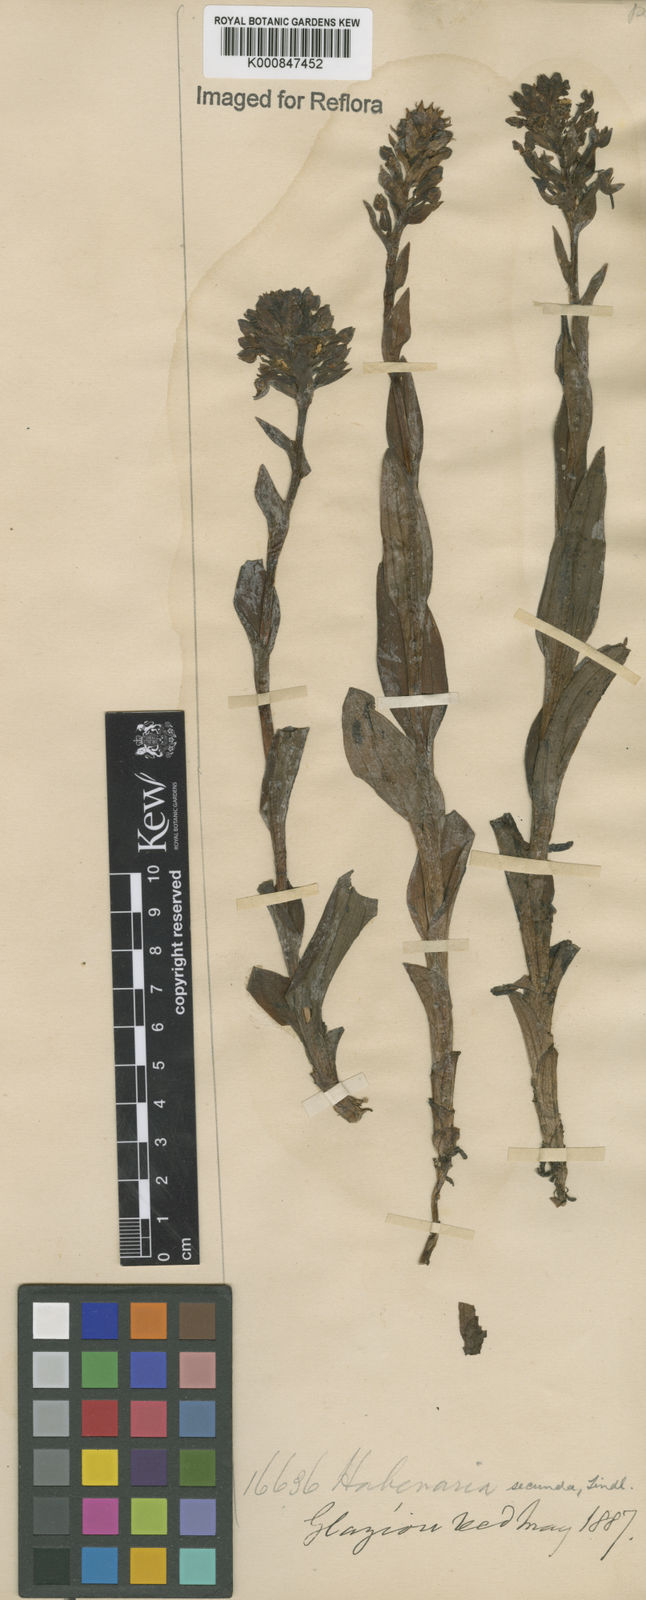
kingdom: Plantae
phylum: Tracheophyta
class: Liliopsida
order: Asparagales
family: Orchidaceae
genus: Habenaria
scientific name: Habenaria secunda
